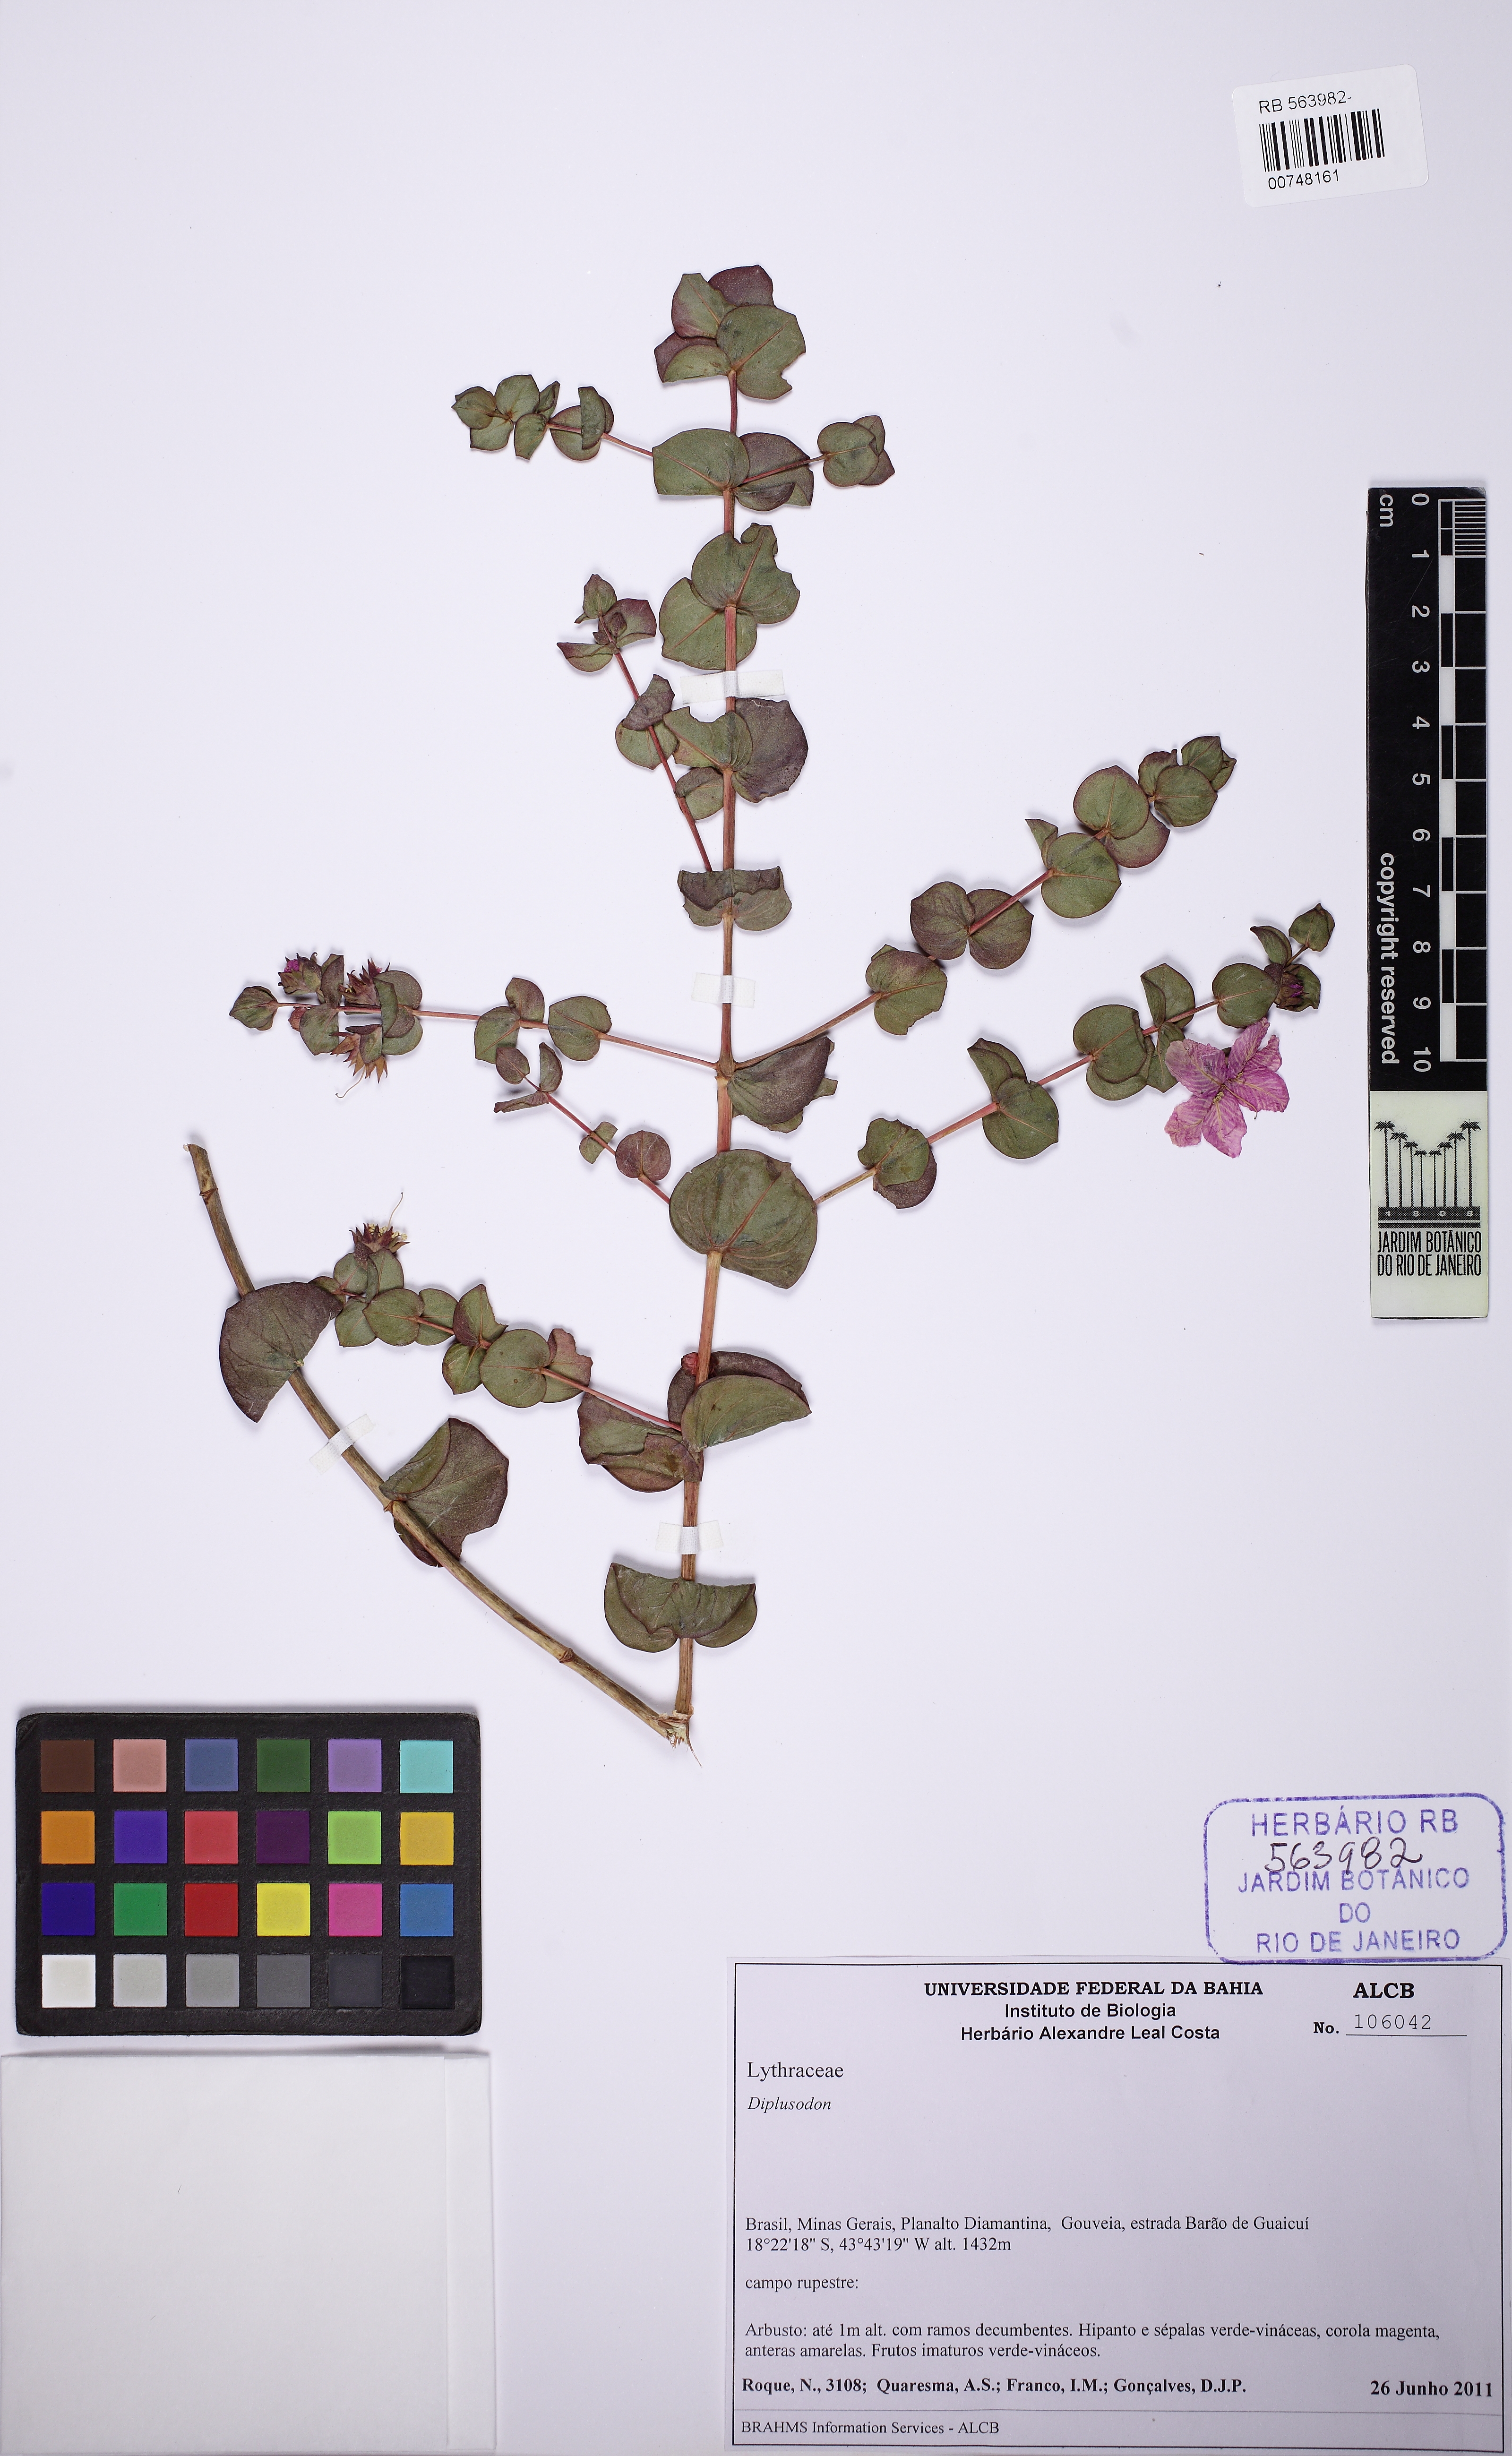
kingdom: Plantae
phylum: Tracheophyta
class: Magnoliopsida
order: Myrtales
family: Lythraceae
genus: Diplusodon
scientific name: Diplusodon glaucescens
